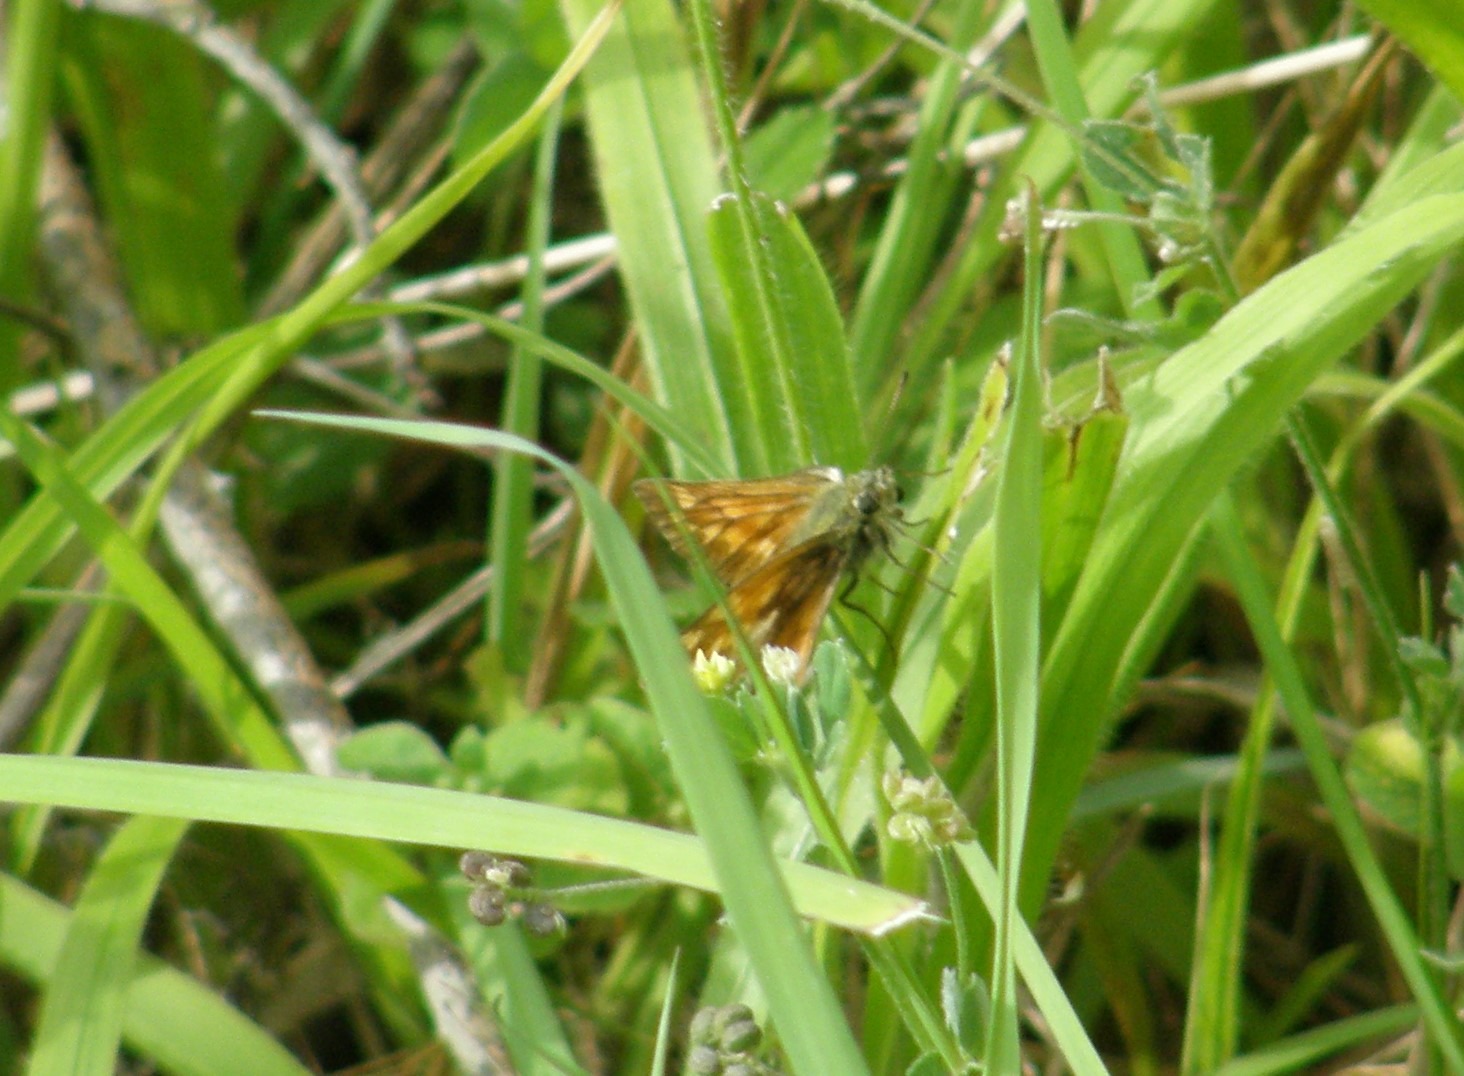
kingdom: Animalia
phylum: Arthropoda
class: Insecta
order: Lepidoptera
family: Hesperiidae
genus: Ochlodes
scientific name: Ochlodes venata
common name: Stor bredpande
